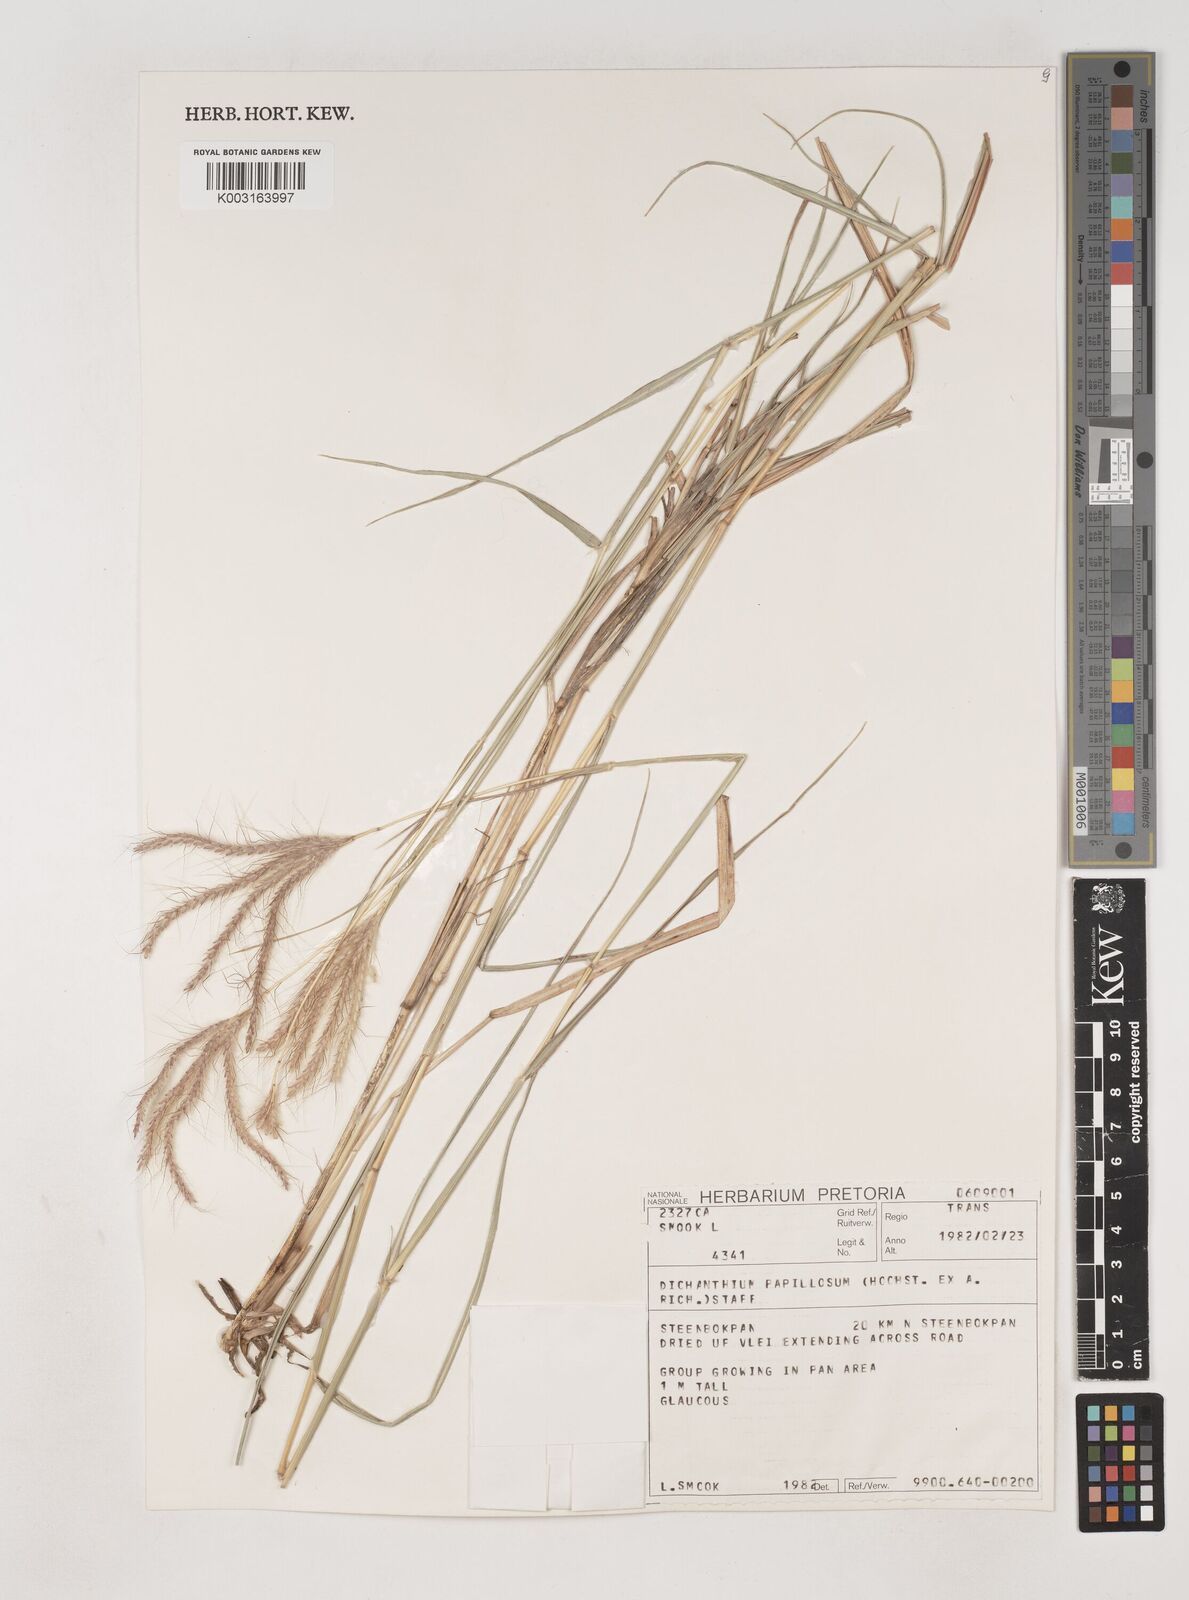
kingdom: Plantae
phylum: Tracheophyta
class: Liliopsida
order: Poales
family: Poaceae
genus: Dichanthium
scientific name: Dichanthium annulatum
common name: Kleberg's bluestem
